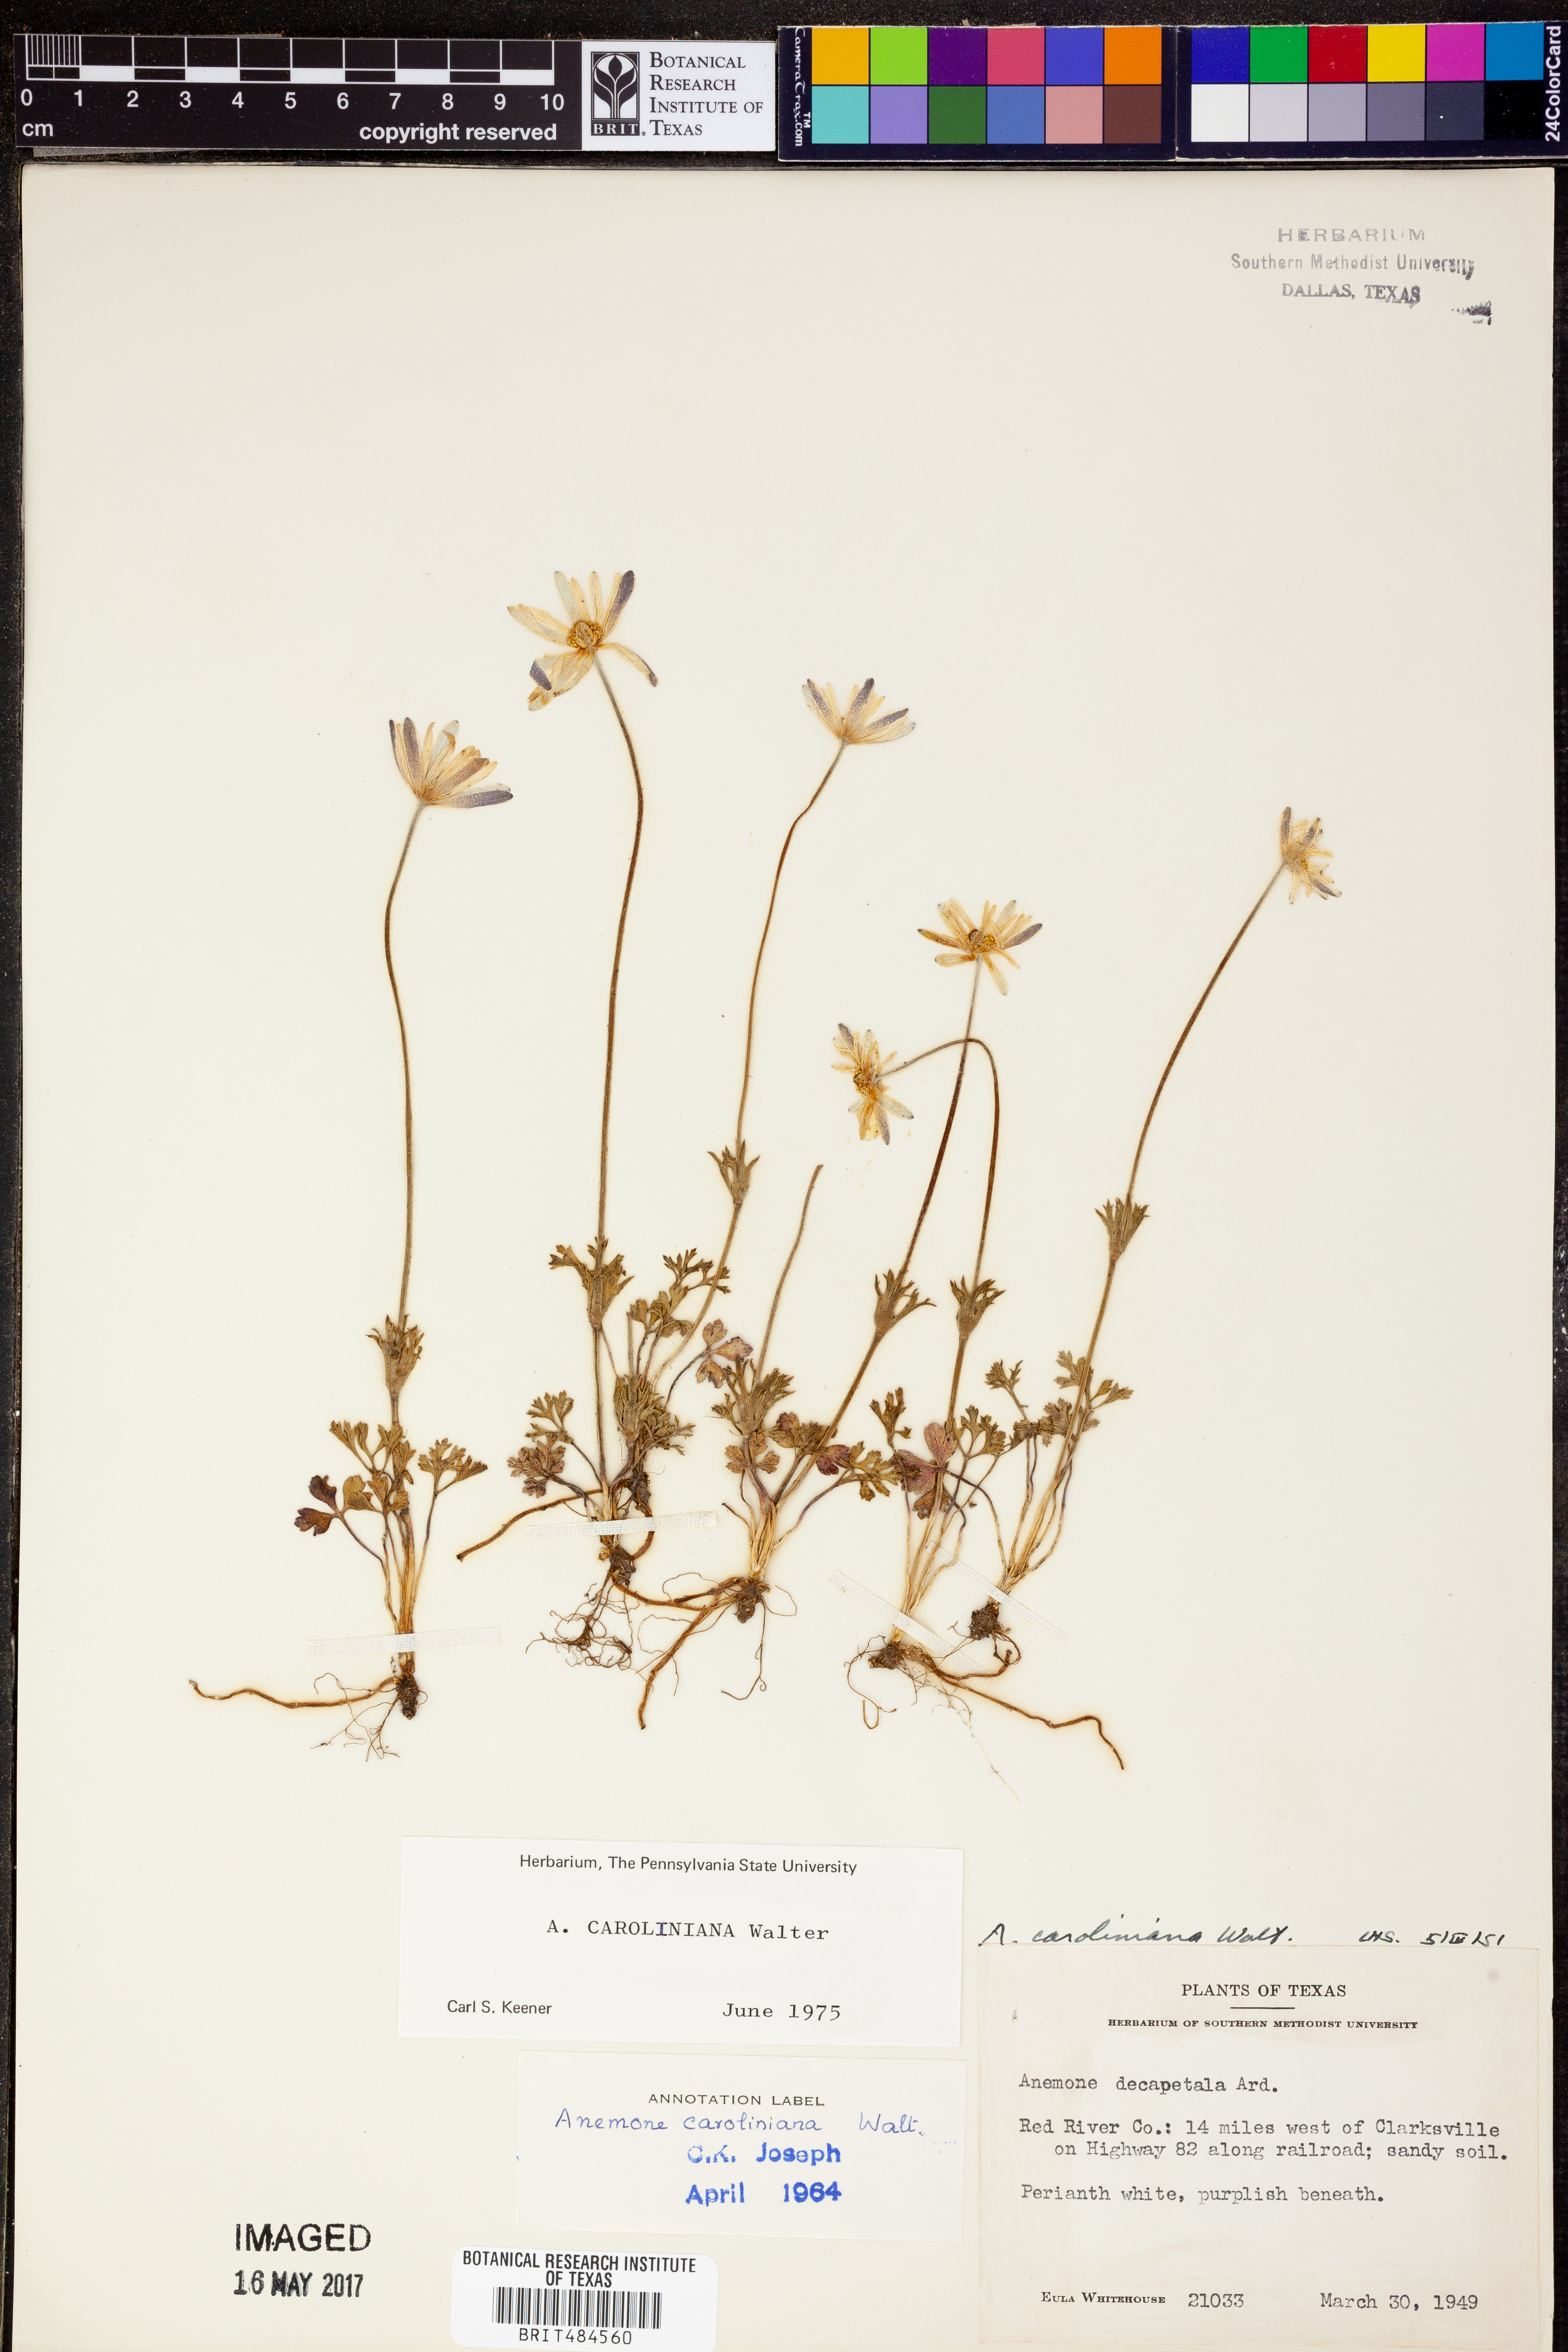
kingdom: Plantae
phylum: Tracheophyta
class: Magnoliopsida
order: Ranunculales
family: Ranunculaceae
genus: Anemone
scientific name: Anemone decapetala
